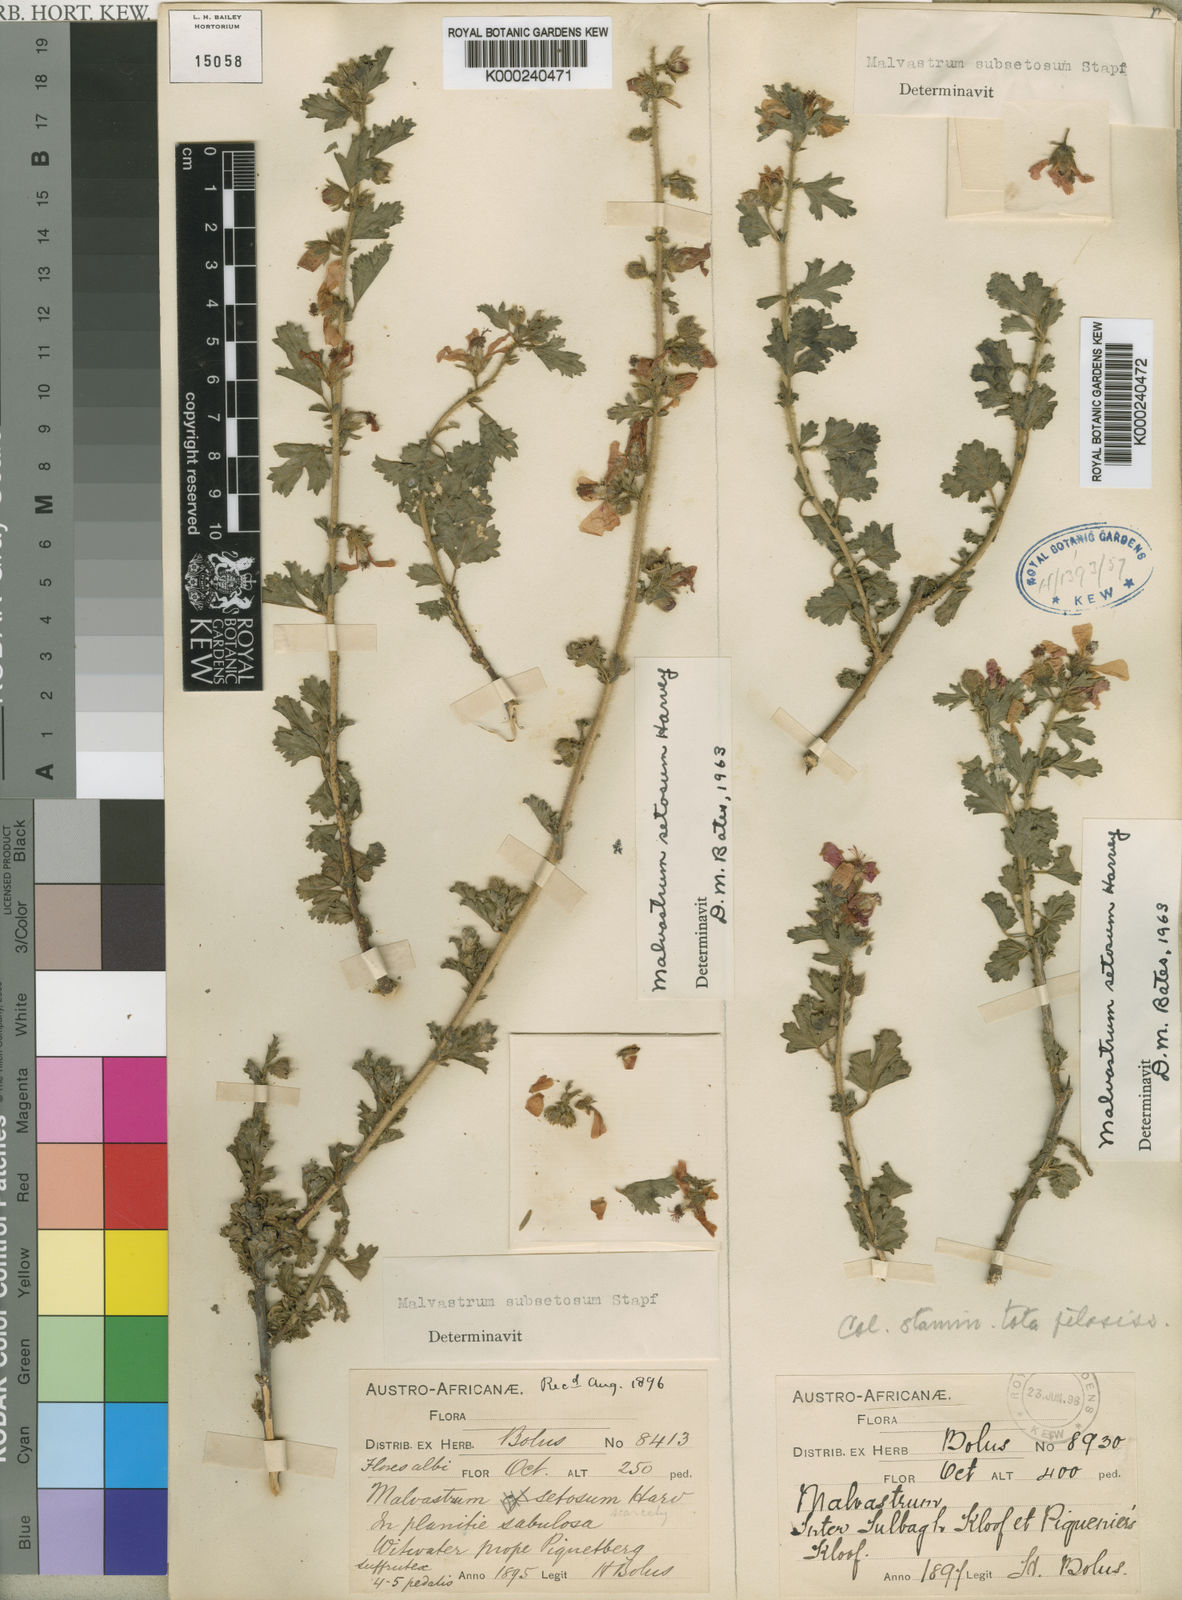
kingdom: Plantae
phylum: Tracheophyta
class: Magnoliopsida
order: Malvales
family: Malvaceae
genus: Anisodontea
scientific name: Anisodontea setosa
